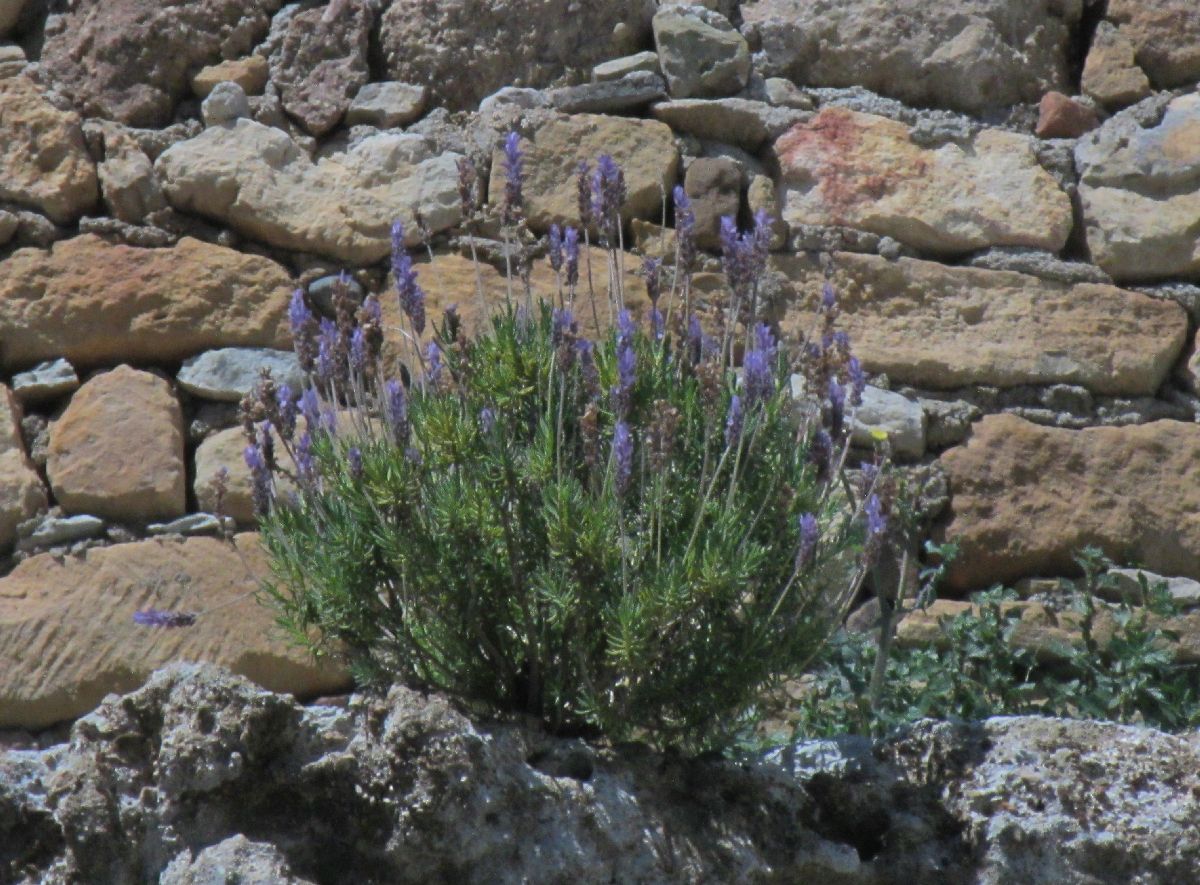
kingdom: Plantae
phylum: Tracheophyta
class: Magnoliopsida
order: Lamiales
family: Lamiaceae
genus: Lavandula
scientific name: Lavandula stoechas
